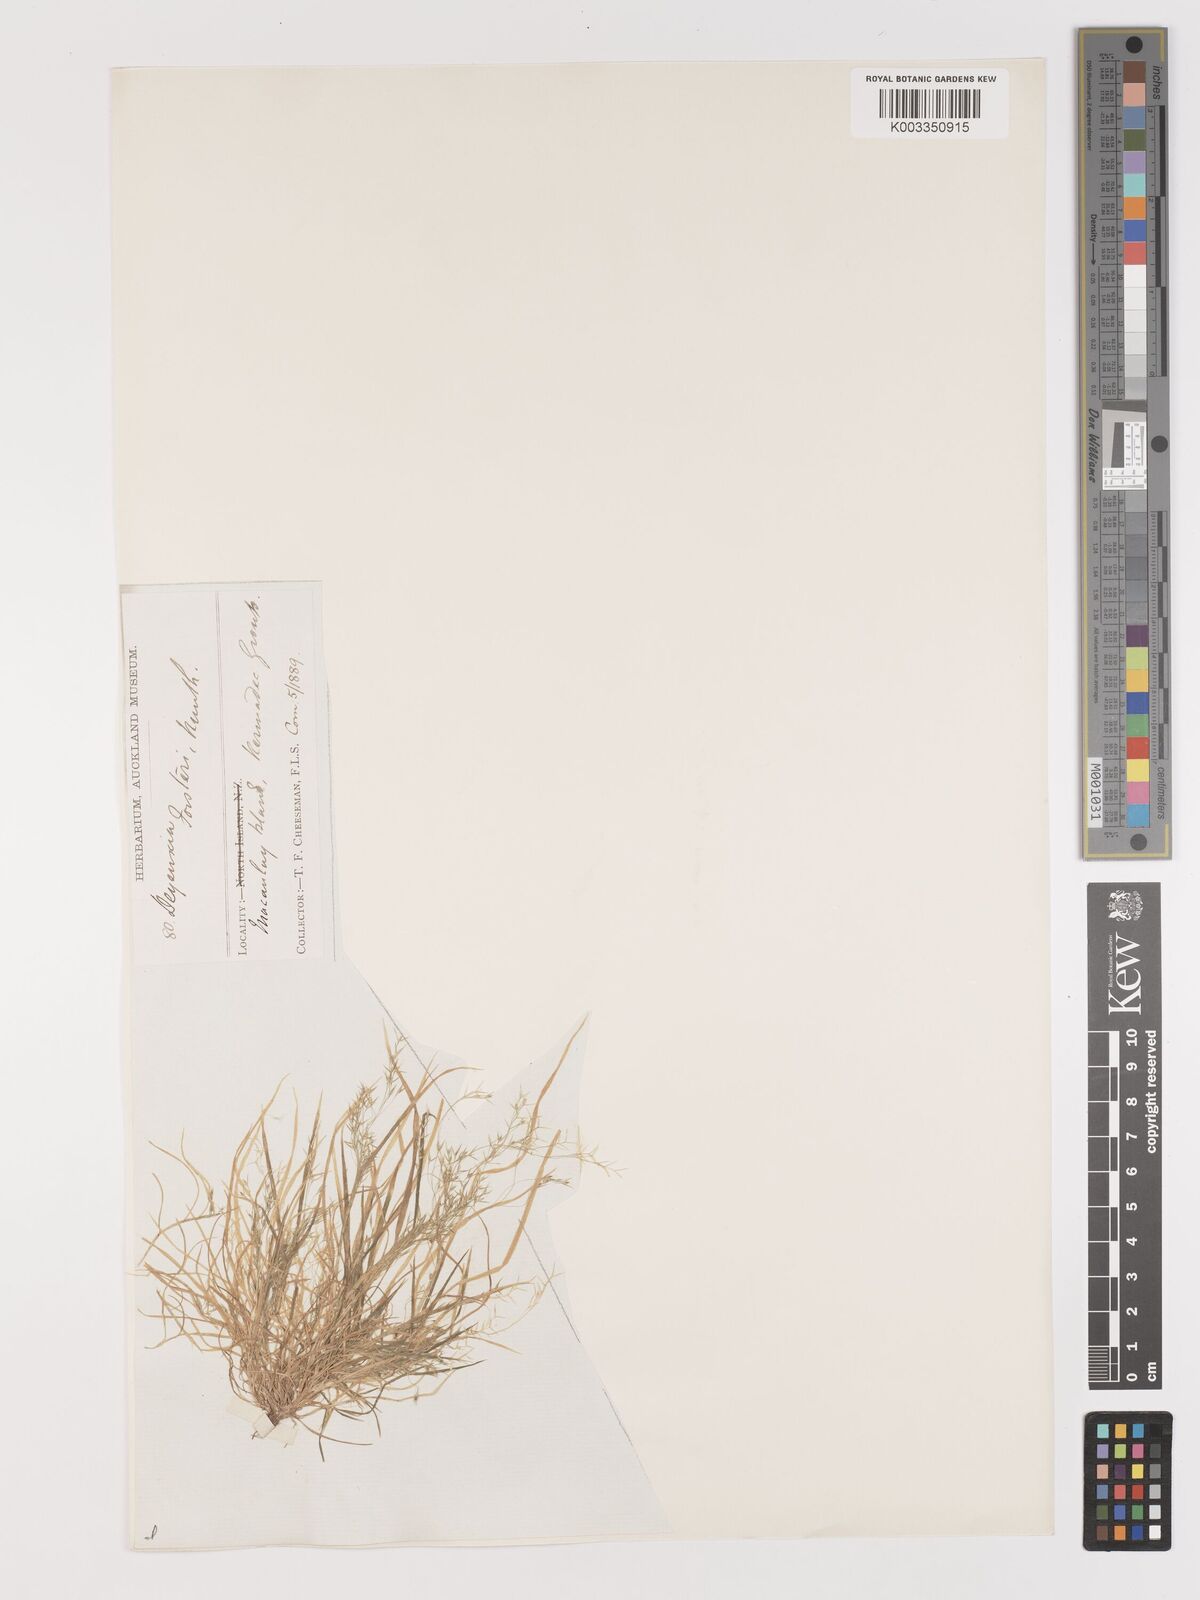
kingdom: Plantae
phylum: Tracheophyta
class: Liliopsida
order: Poales
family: Poaceae
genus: Lachnagrostis
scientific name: Lachnagrostis filiformis
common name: Bentgrass
